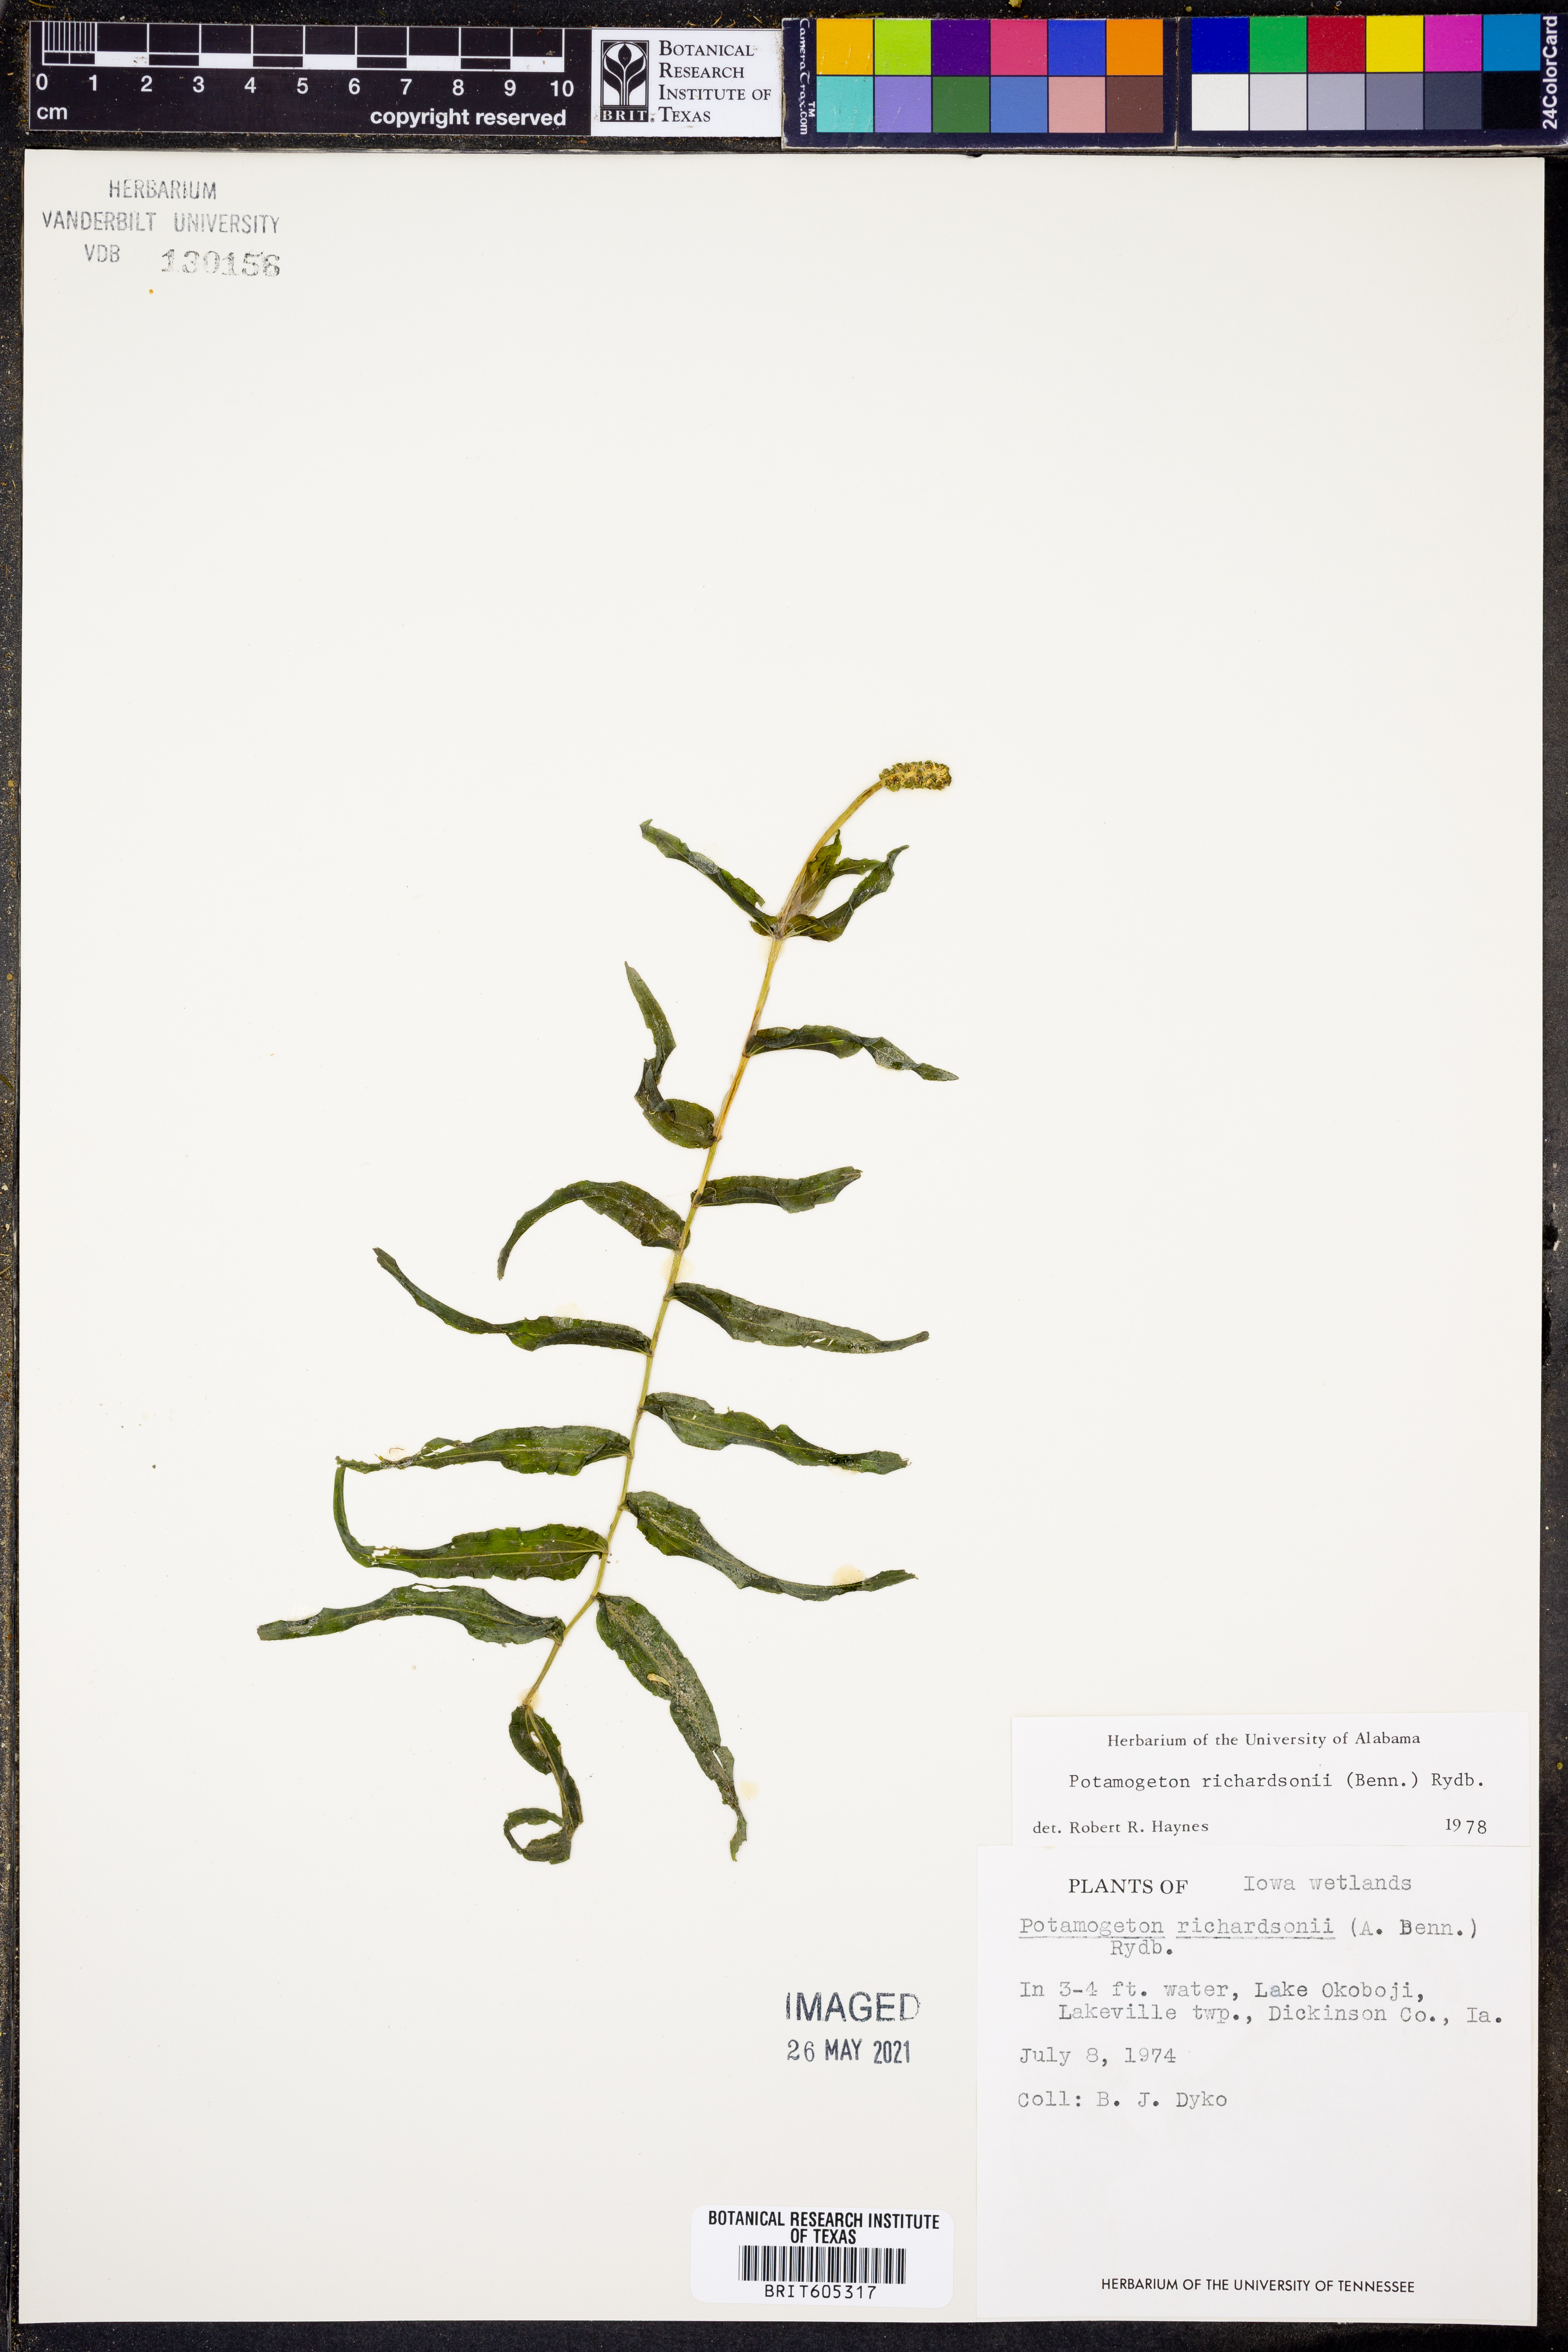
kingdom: Plantae
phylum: Tracheophyta
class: Liliopsida
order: Alismatales
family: Potamogetonaceae
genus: Potamogeton
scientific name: Potamogeton richardsonii
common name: Richardson's pondweed
